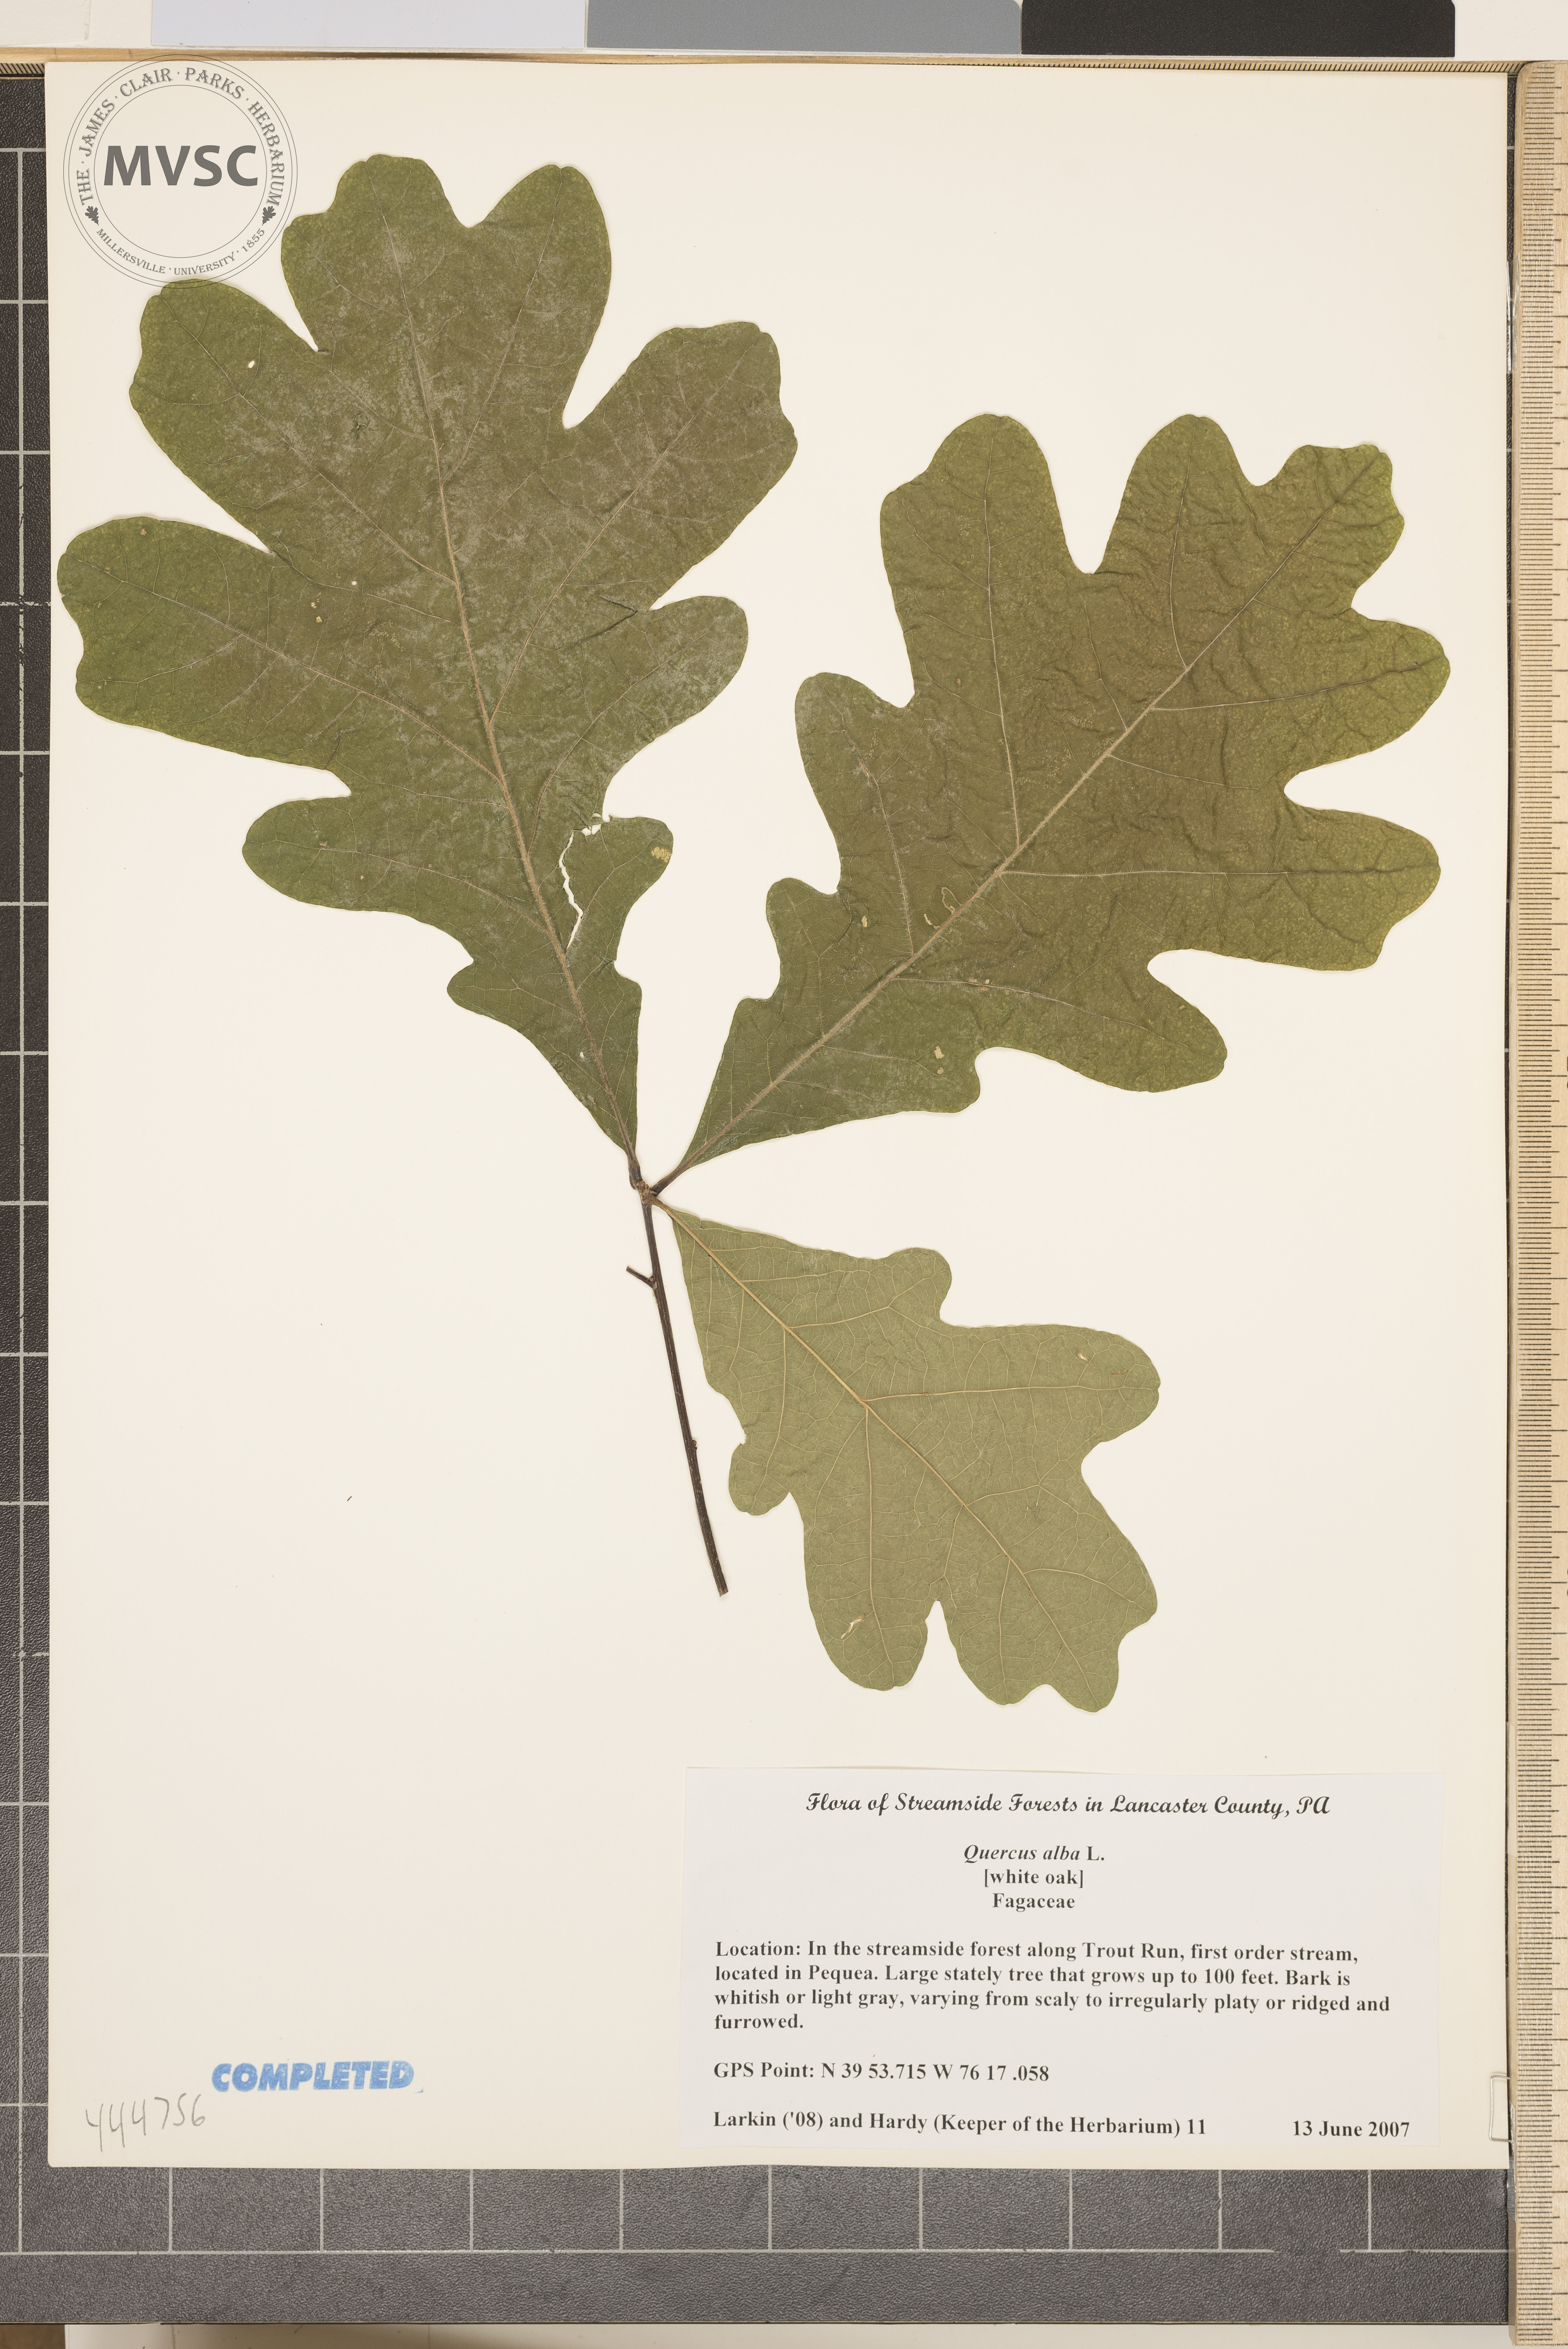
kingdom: Plantae
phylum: Tracheophyta
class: Magnoliopsida
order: Fagales
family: Fagaceae
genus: Quercus
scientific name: Quercus alba
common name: White Oak
